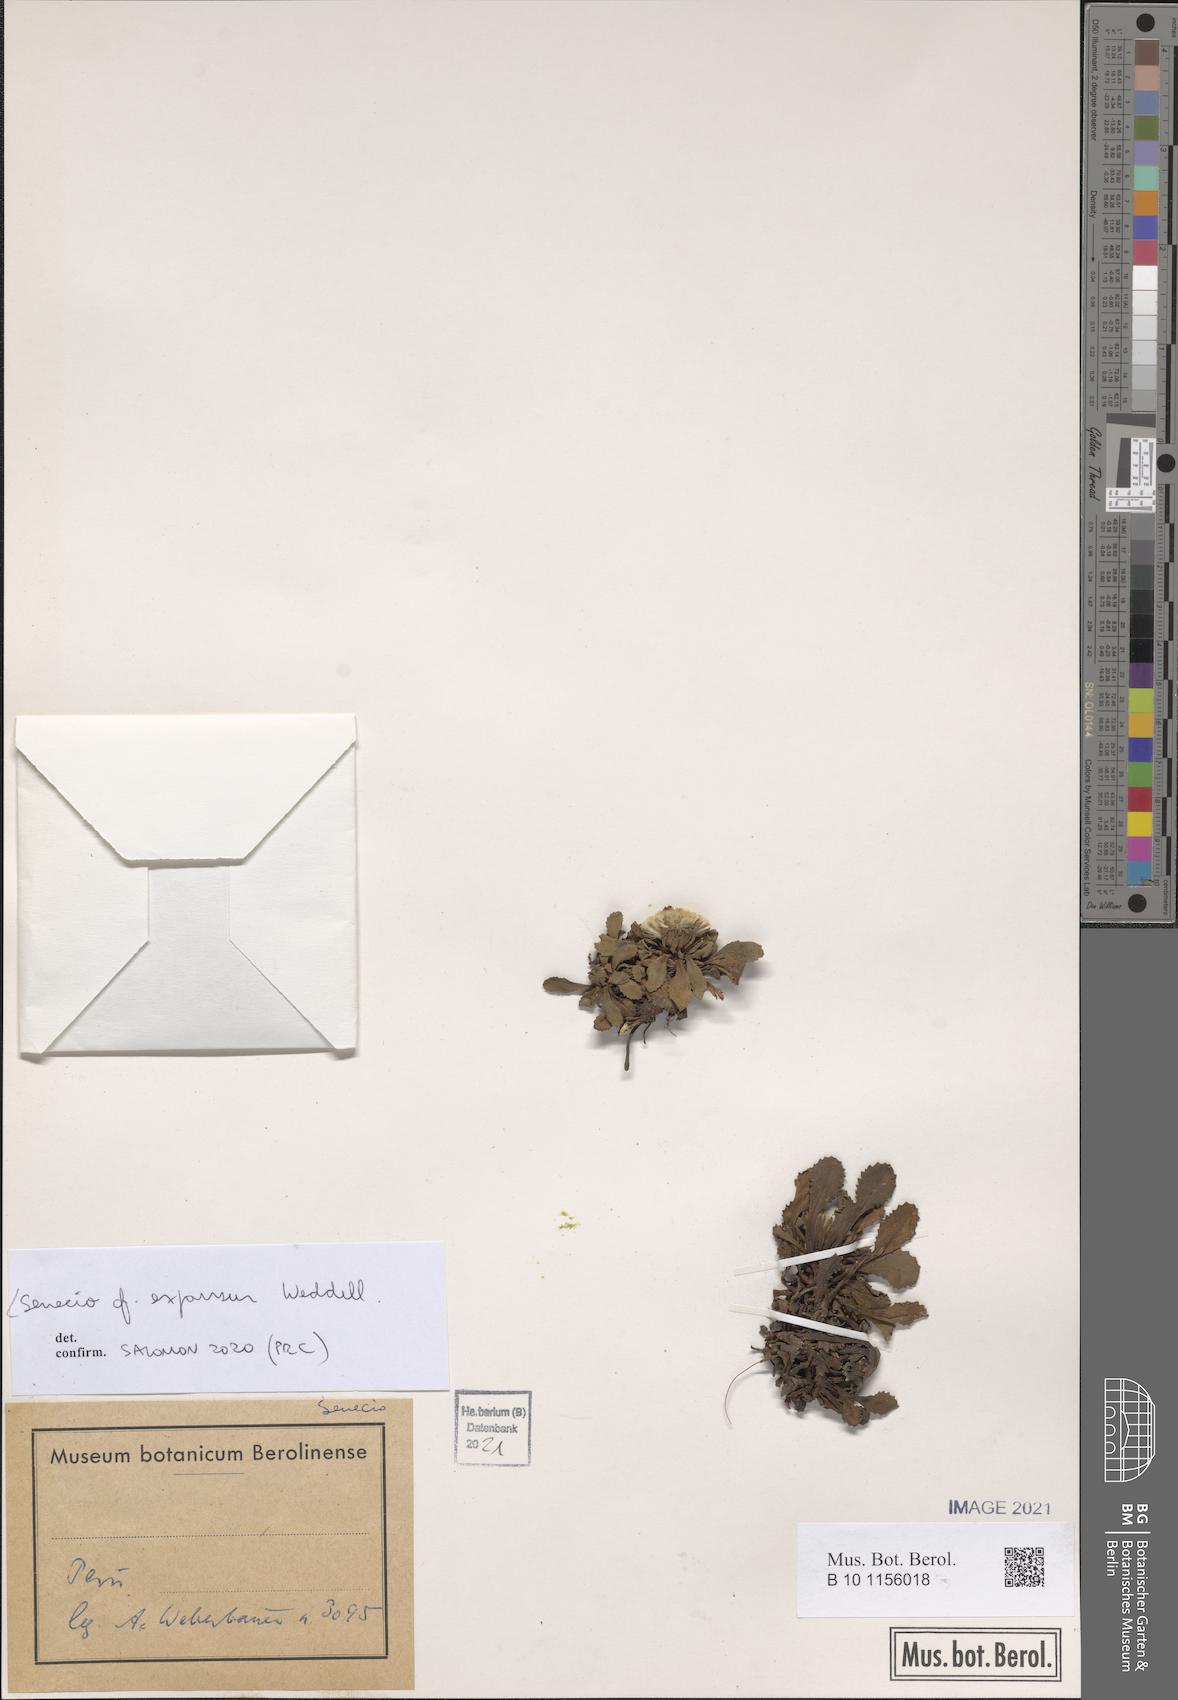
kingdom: Plantae
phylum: Tracheophyta
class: Magnoliopsida
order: Asterales
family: Asteraceae
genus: Senecio
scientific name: Senecio expansus
